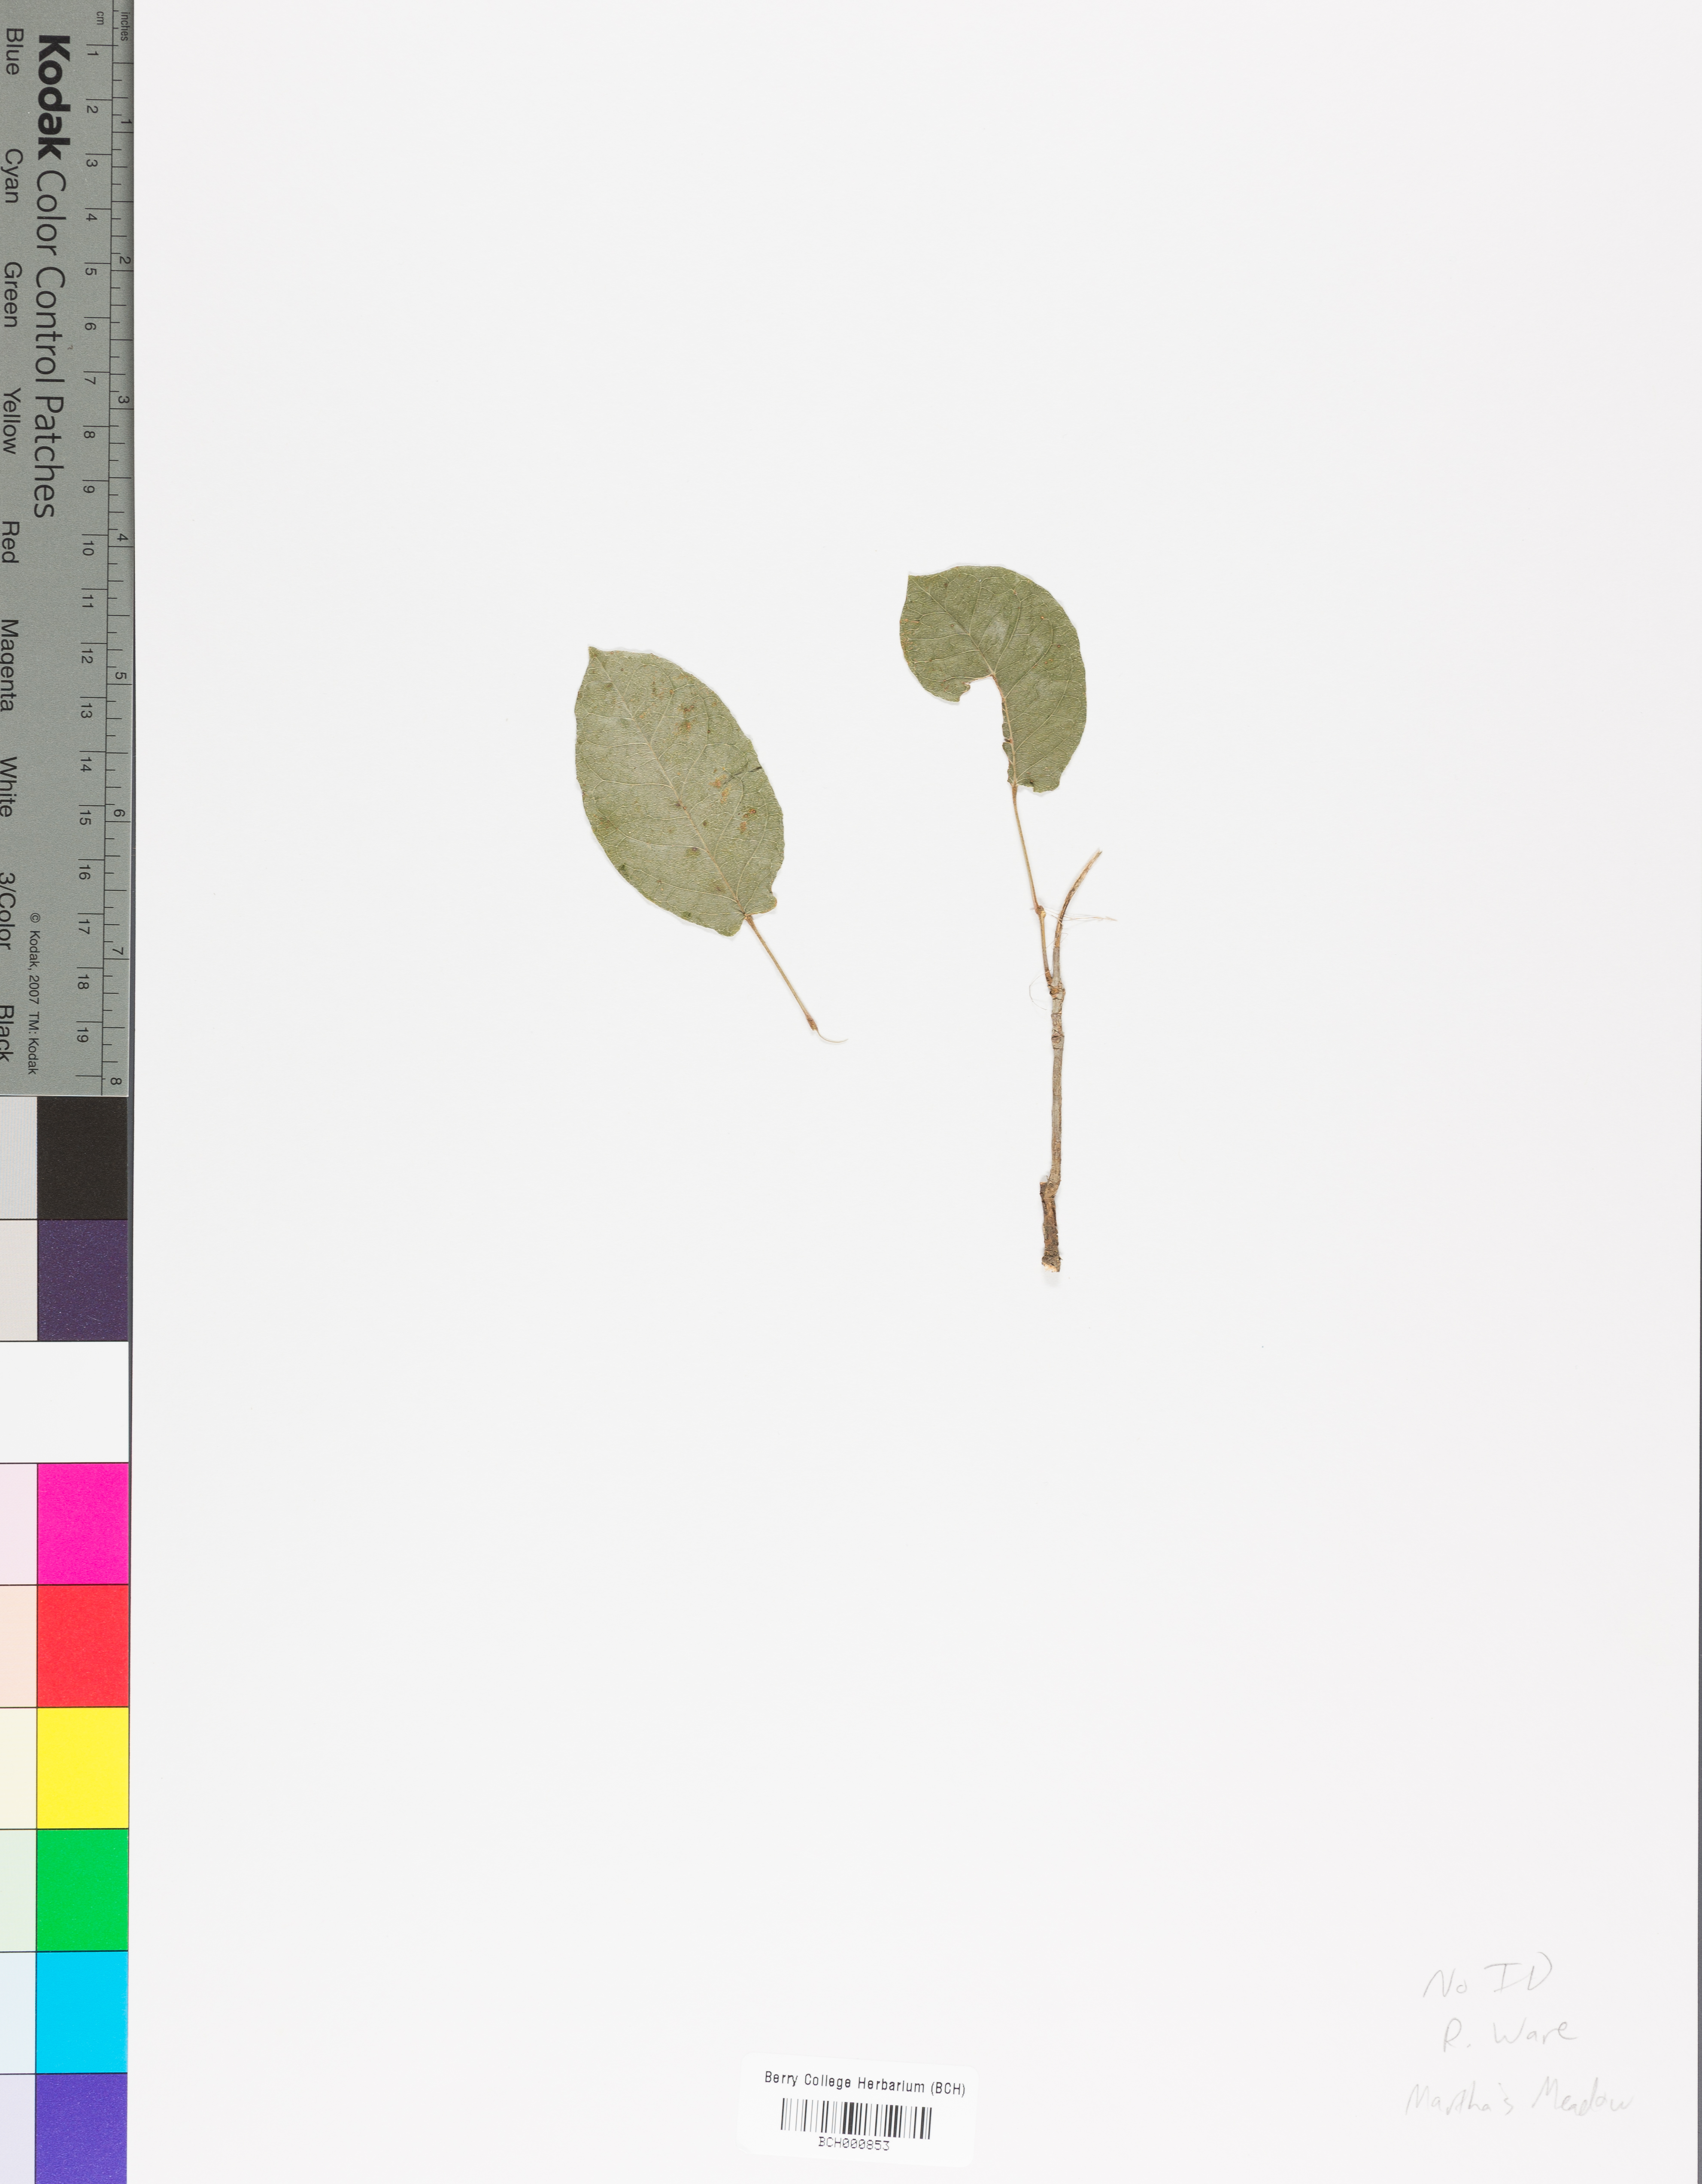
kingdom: Plantae
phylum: Tracheophyta
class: Magnoliopsida
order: Lamiales
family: Acanthaceae
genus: Adhatoda
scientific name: Adhatoda
